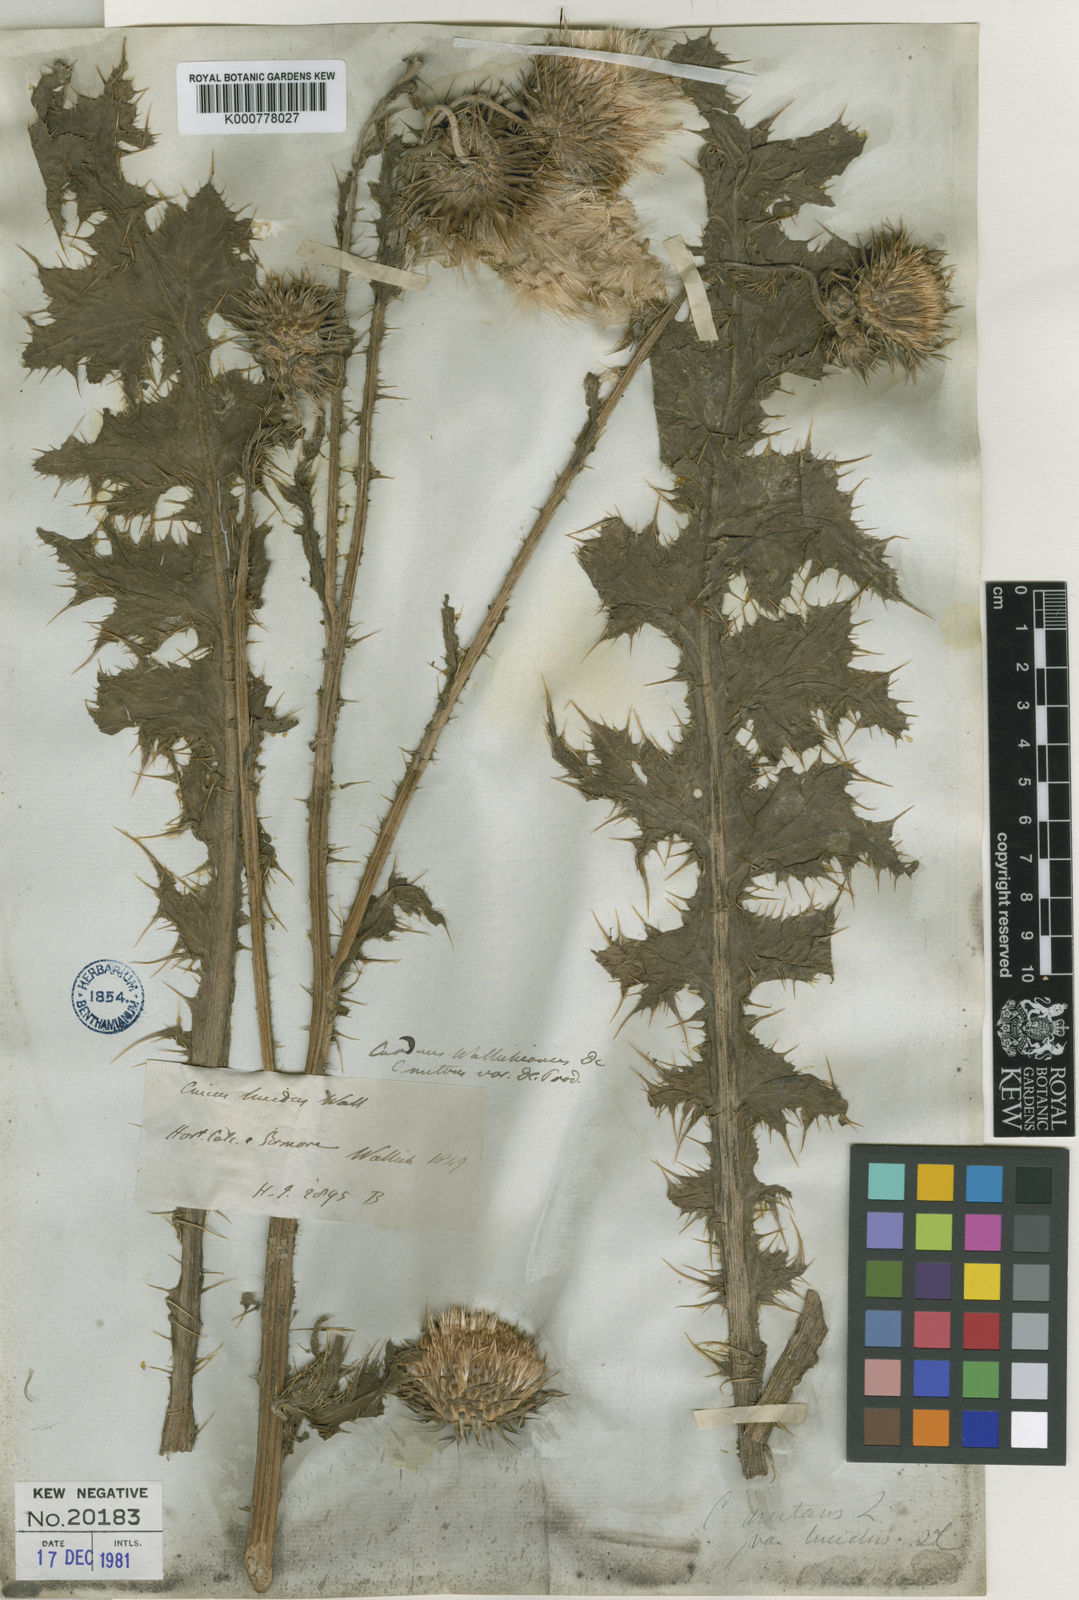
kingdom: Plantae
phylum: Tracheophyta
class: Magnoliopsida
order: Asterales
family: Asteraceae
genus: Carduus
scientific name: Carduus nutans
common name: Musk thistle
